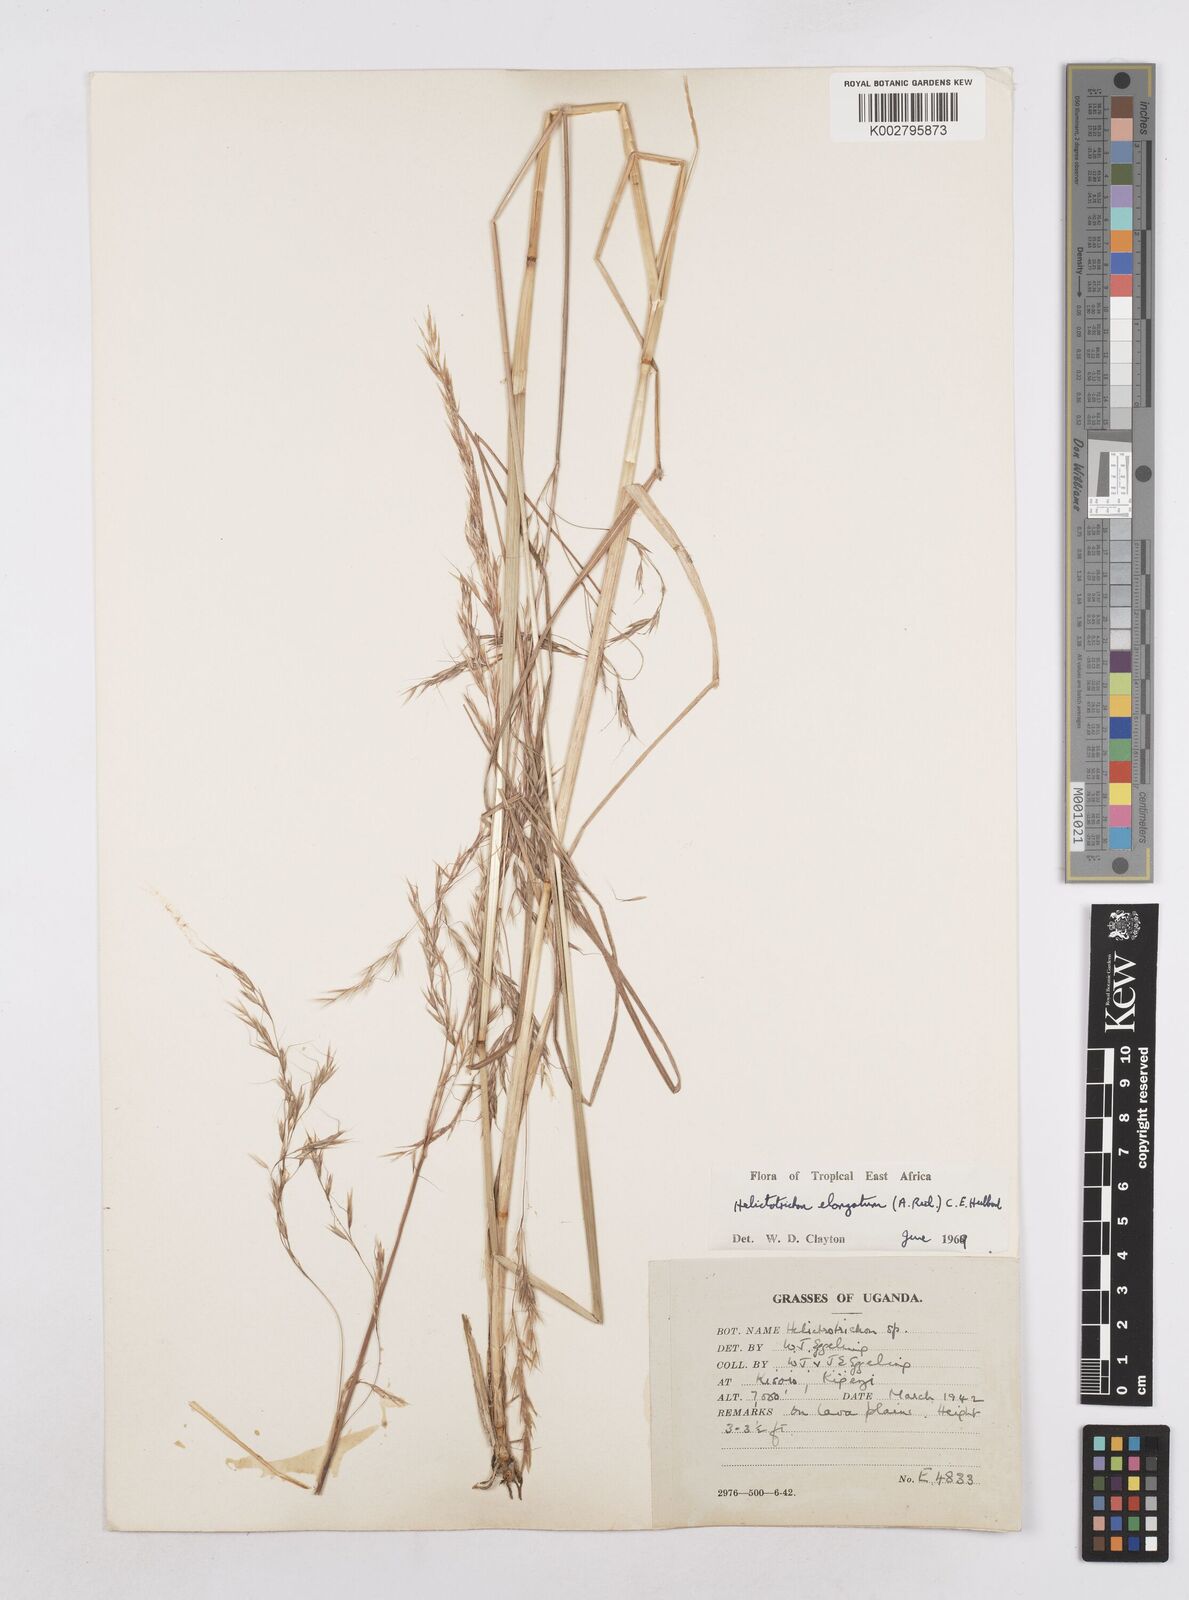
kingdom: Plantae
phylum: Tracheophyta
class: Liliopsida
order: Poales
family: Poaceae
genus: Trisetopsis
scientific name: Trisetopsis elongata
